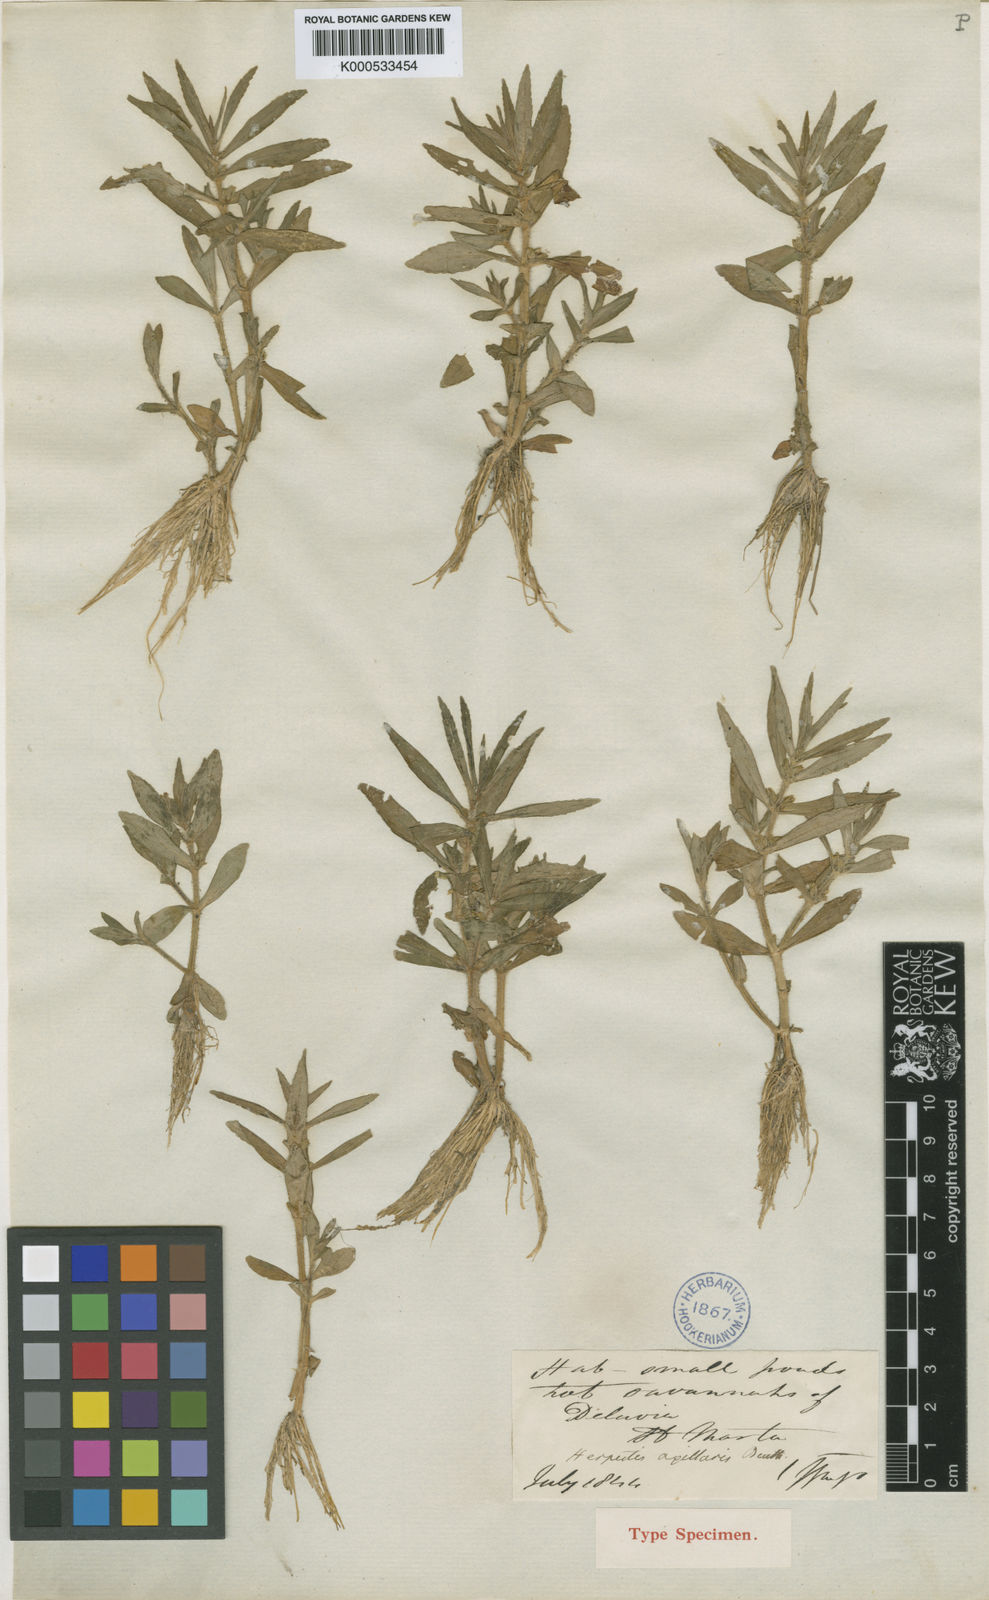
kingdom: Plantae
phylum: Tracheophyta
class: Magnoliopsida
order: Lamiales
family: Plantaginaceae
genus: Bacopa
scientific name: Bacopa axillaris
